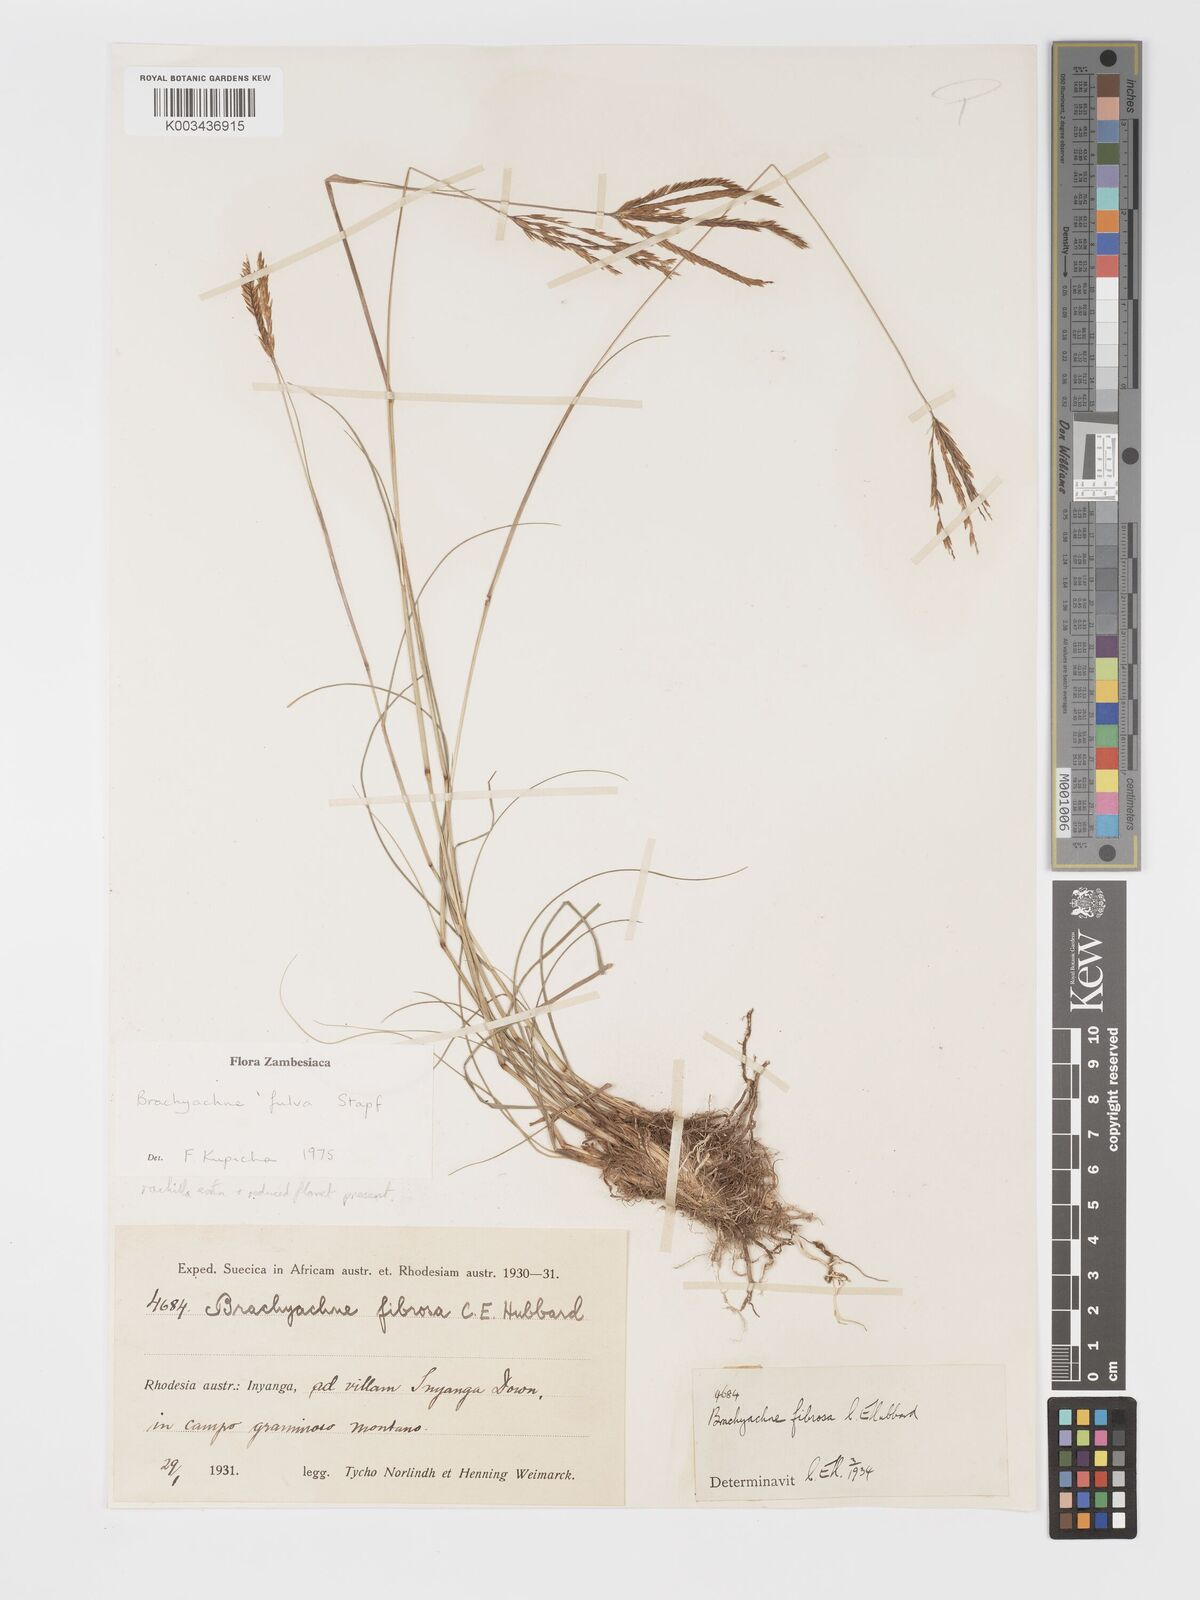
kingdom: Plantae
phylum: Tracheophyta
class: Liliopsida
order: Poales
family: Poaceae
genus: Micrachne
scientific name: Micrachne fulva
